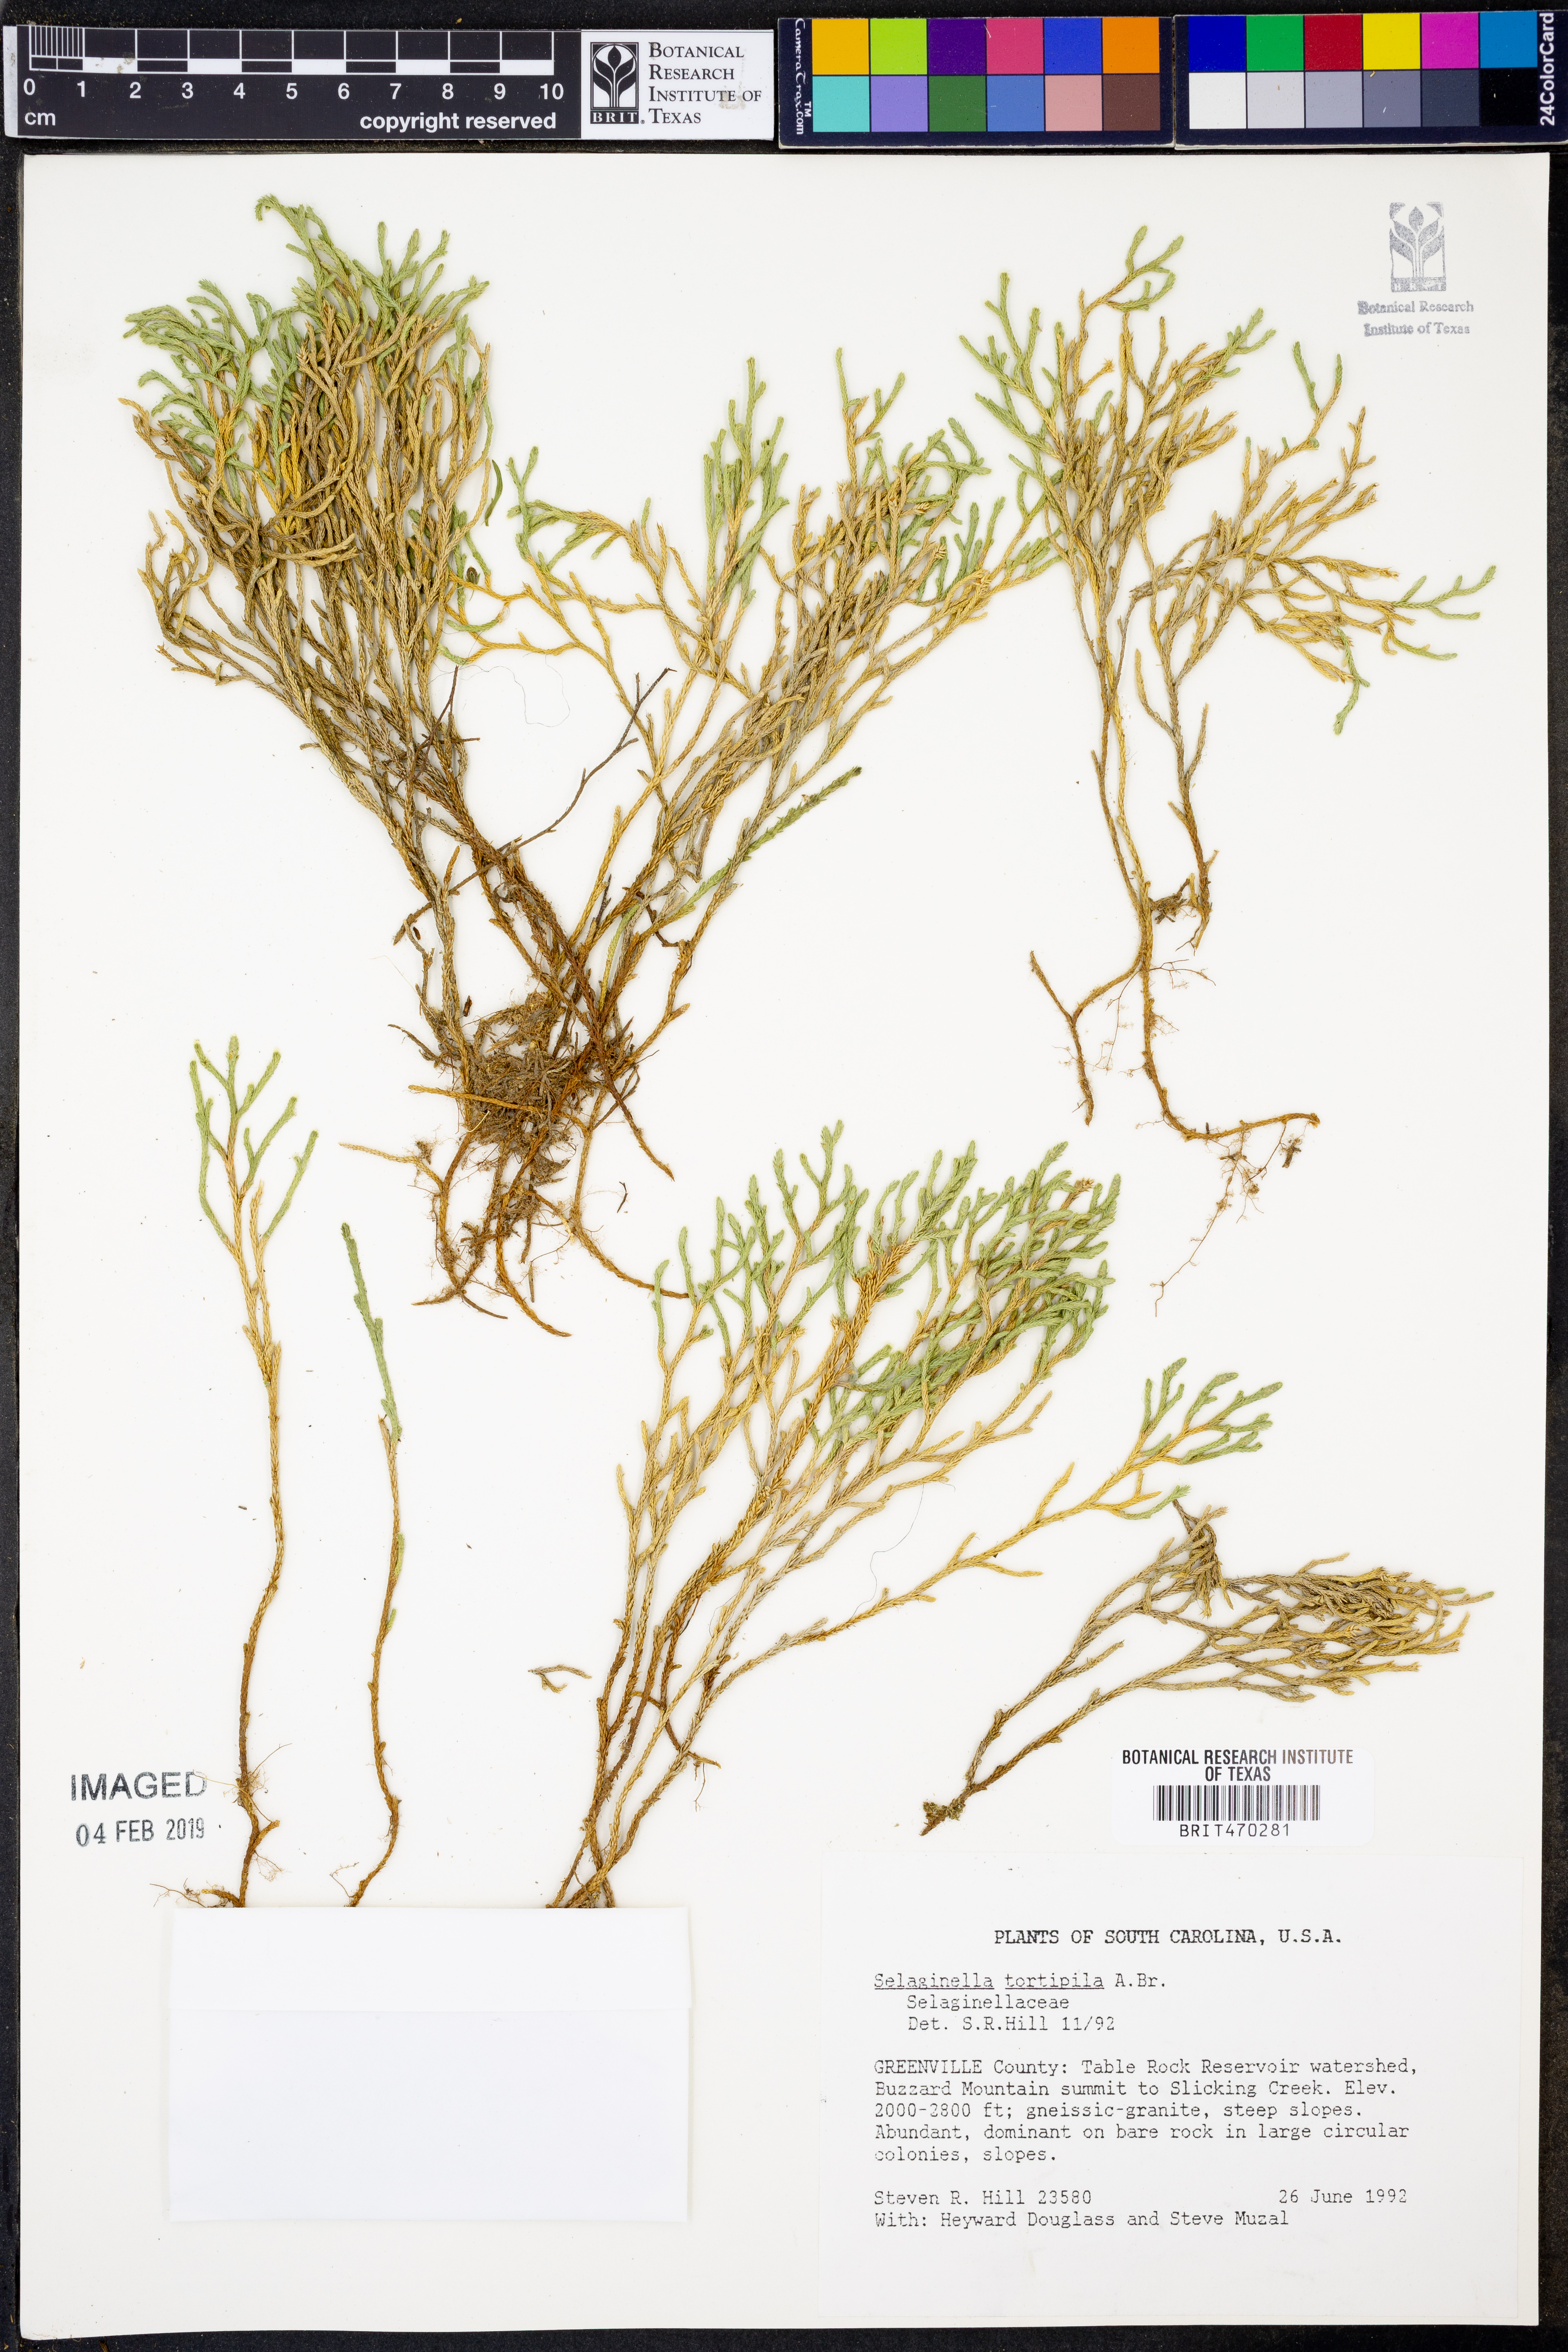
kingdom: Plantae
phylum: Tracheophyta
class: Lycopodiopsida
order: Selaginellales
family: Selaginellaceae
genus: Selaginella
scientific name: Selaginella tortipila
